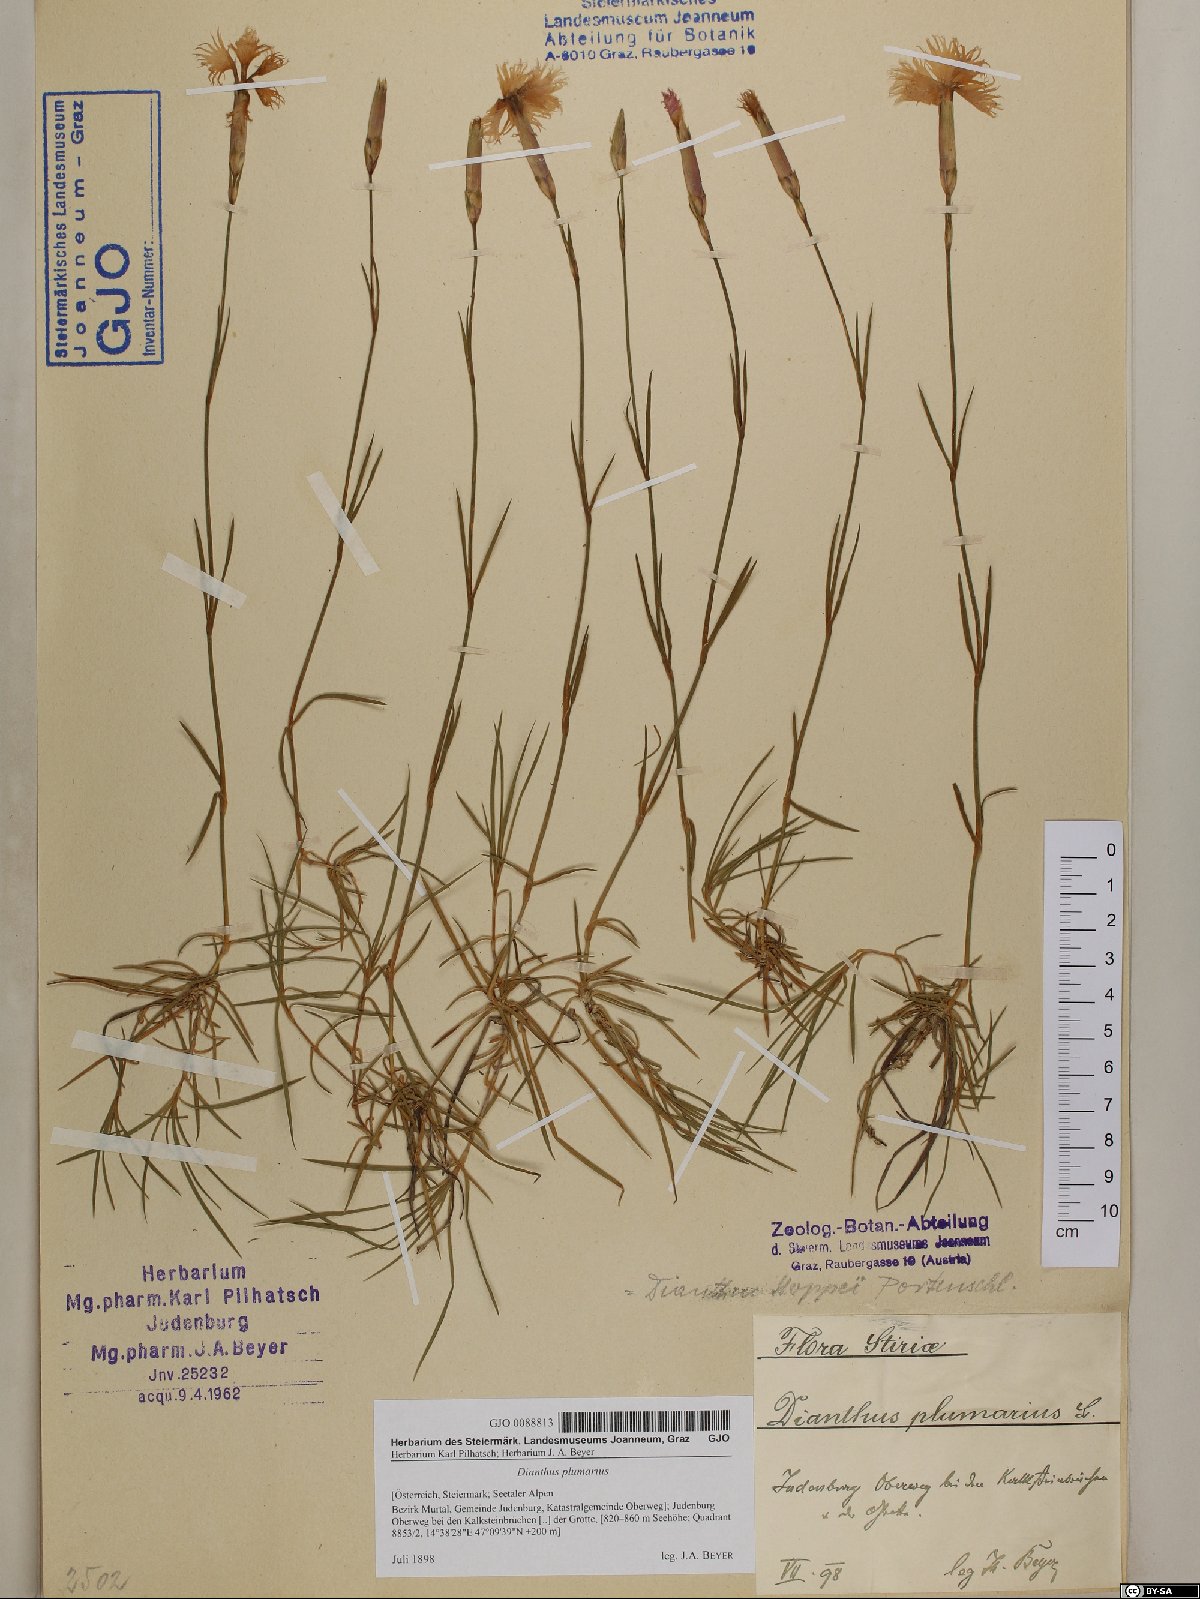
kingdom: Plantae
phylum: Tracheophyta
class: Magnoliopsida
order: Caryophyllales
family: Caryophyllaceae
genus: Dianthus
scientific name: Dianthus plumarius
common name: Pink
